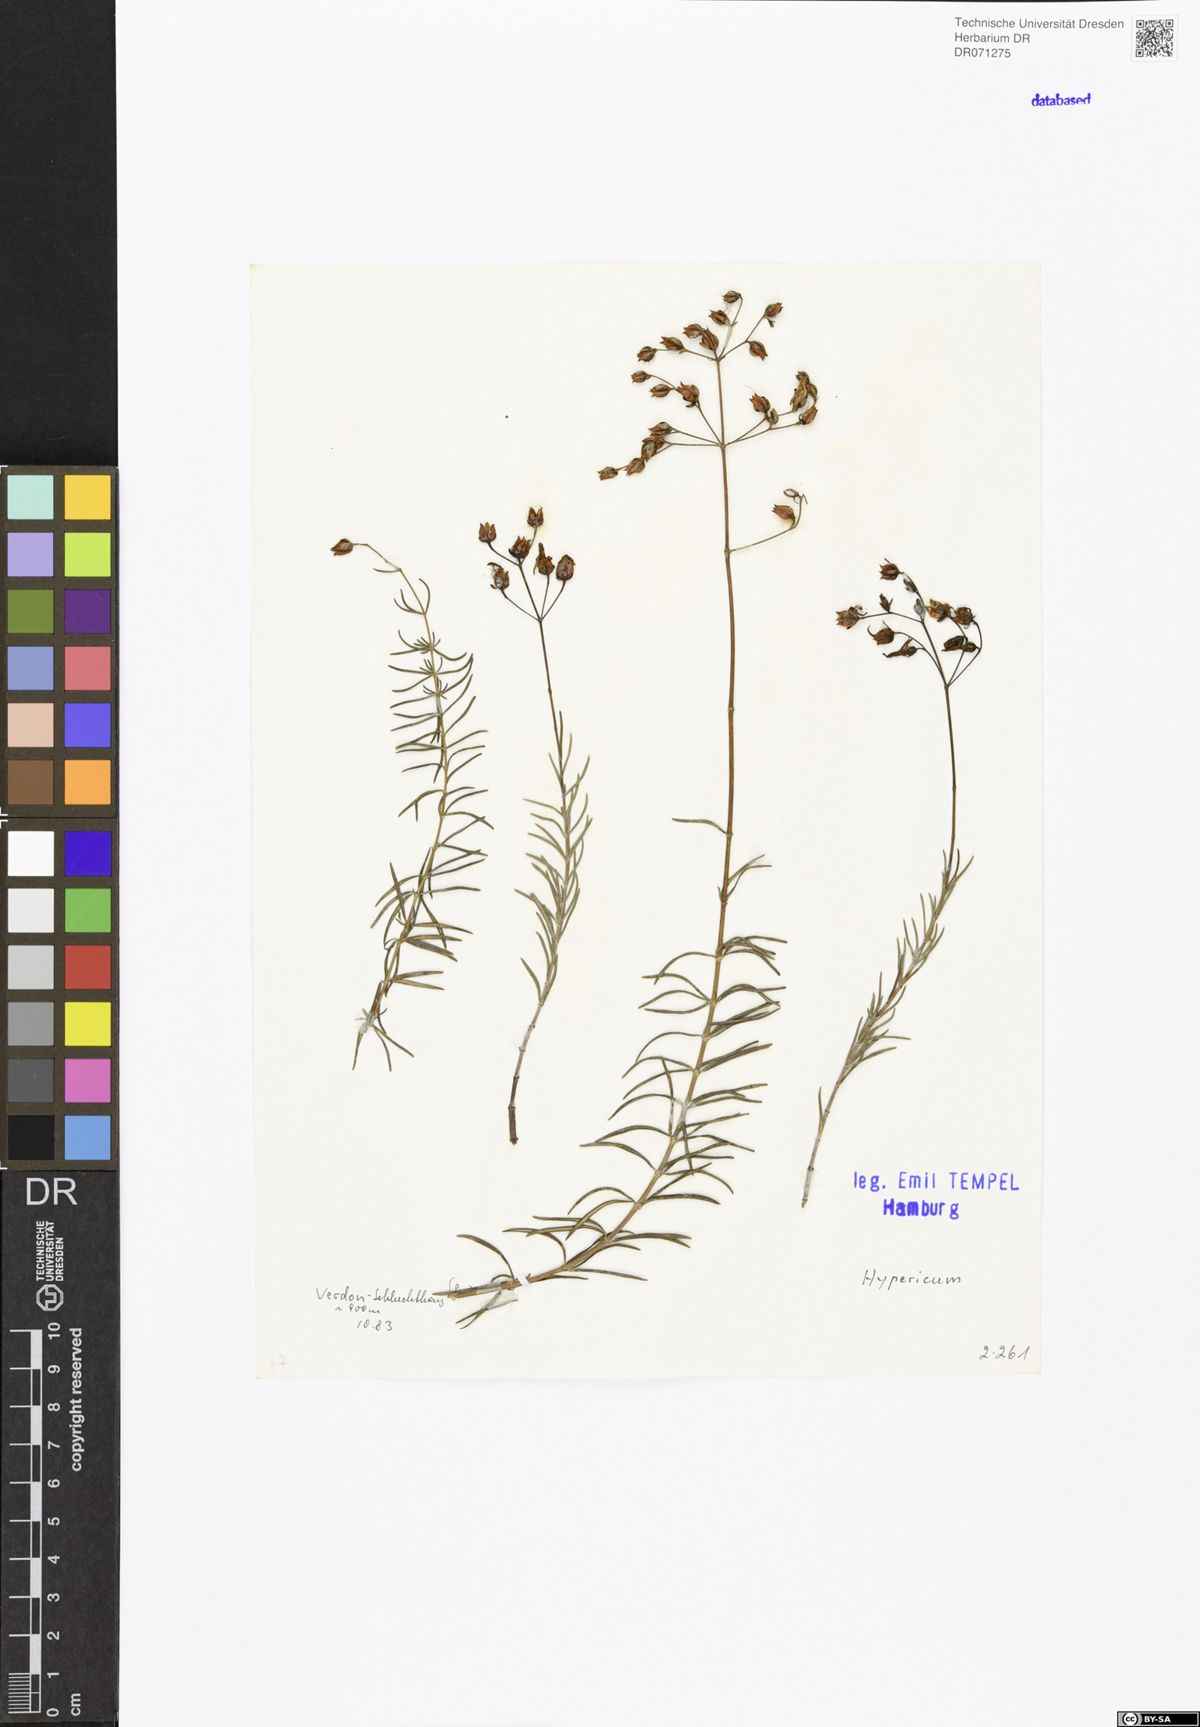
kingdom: Plantae
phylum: Tracheophyta
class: Magnoliopsida
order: Malpighiales
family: Hypericaceae
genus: Hypericum
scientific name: Hypericum
